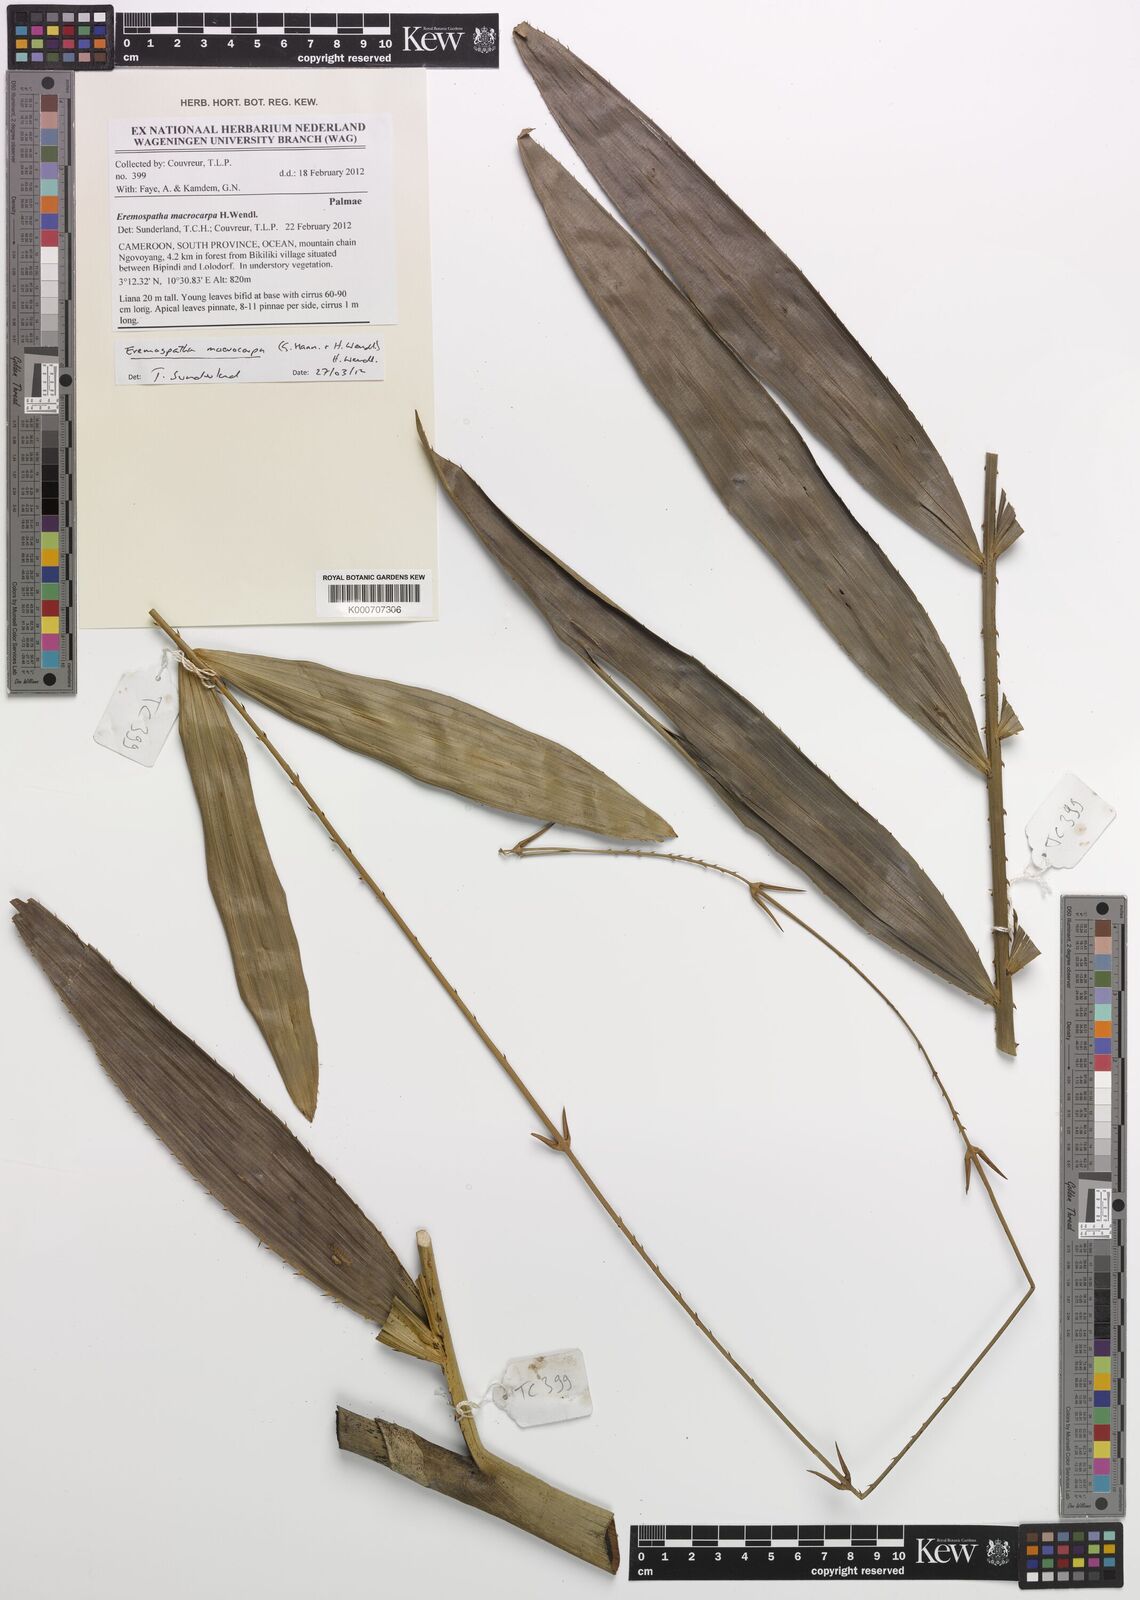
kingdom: Plantae
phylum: Tracheophyta
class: Liliopsida
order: Arecales
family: Arecaceae
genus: Eremospatha
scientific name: Eremospatha macrocarpa
